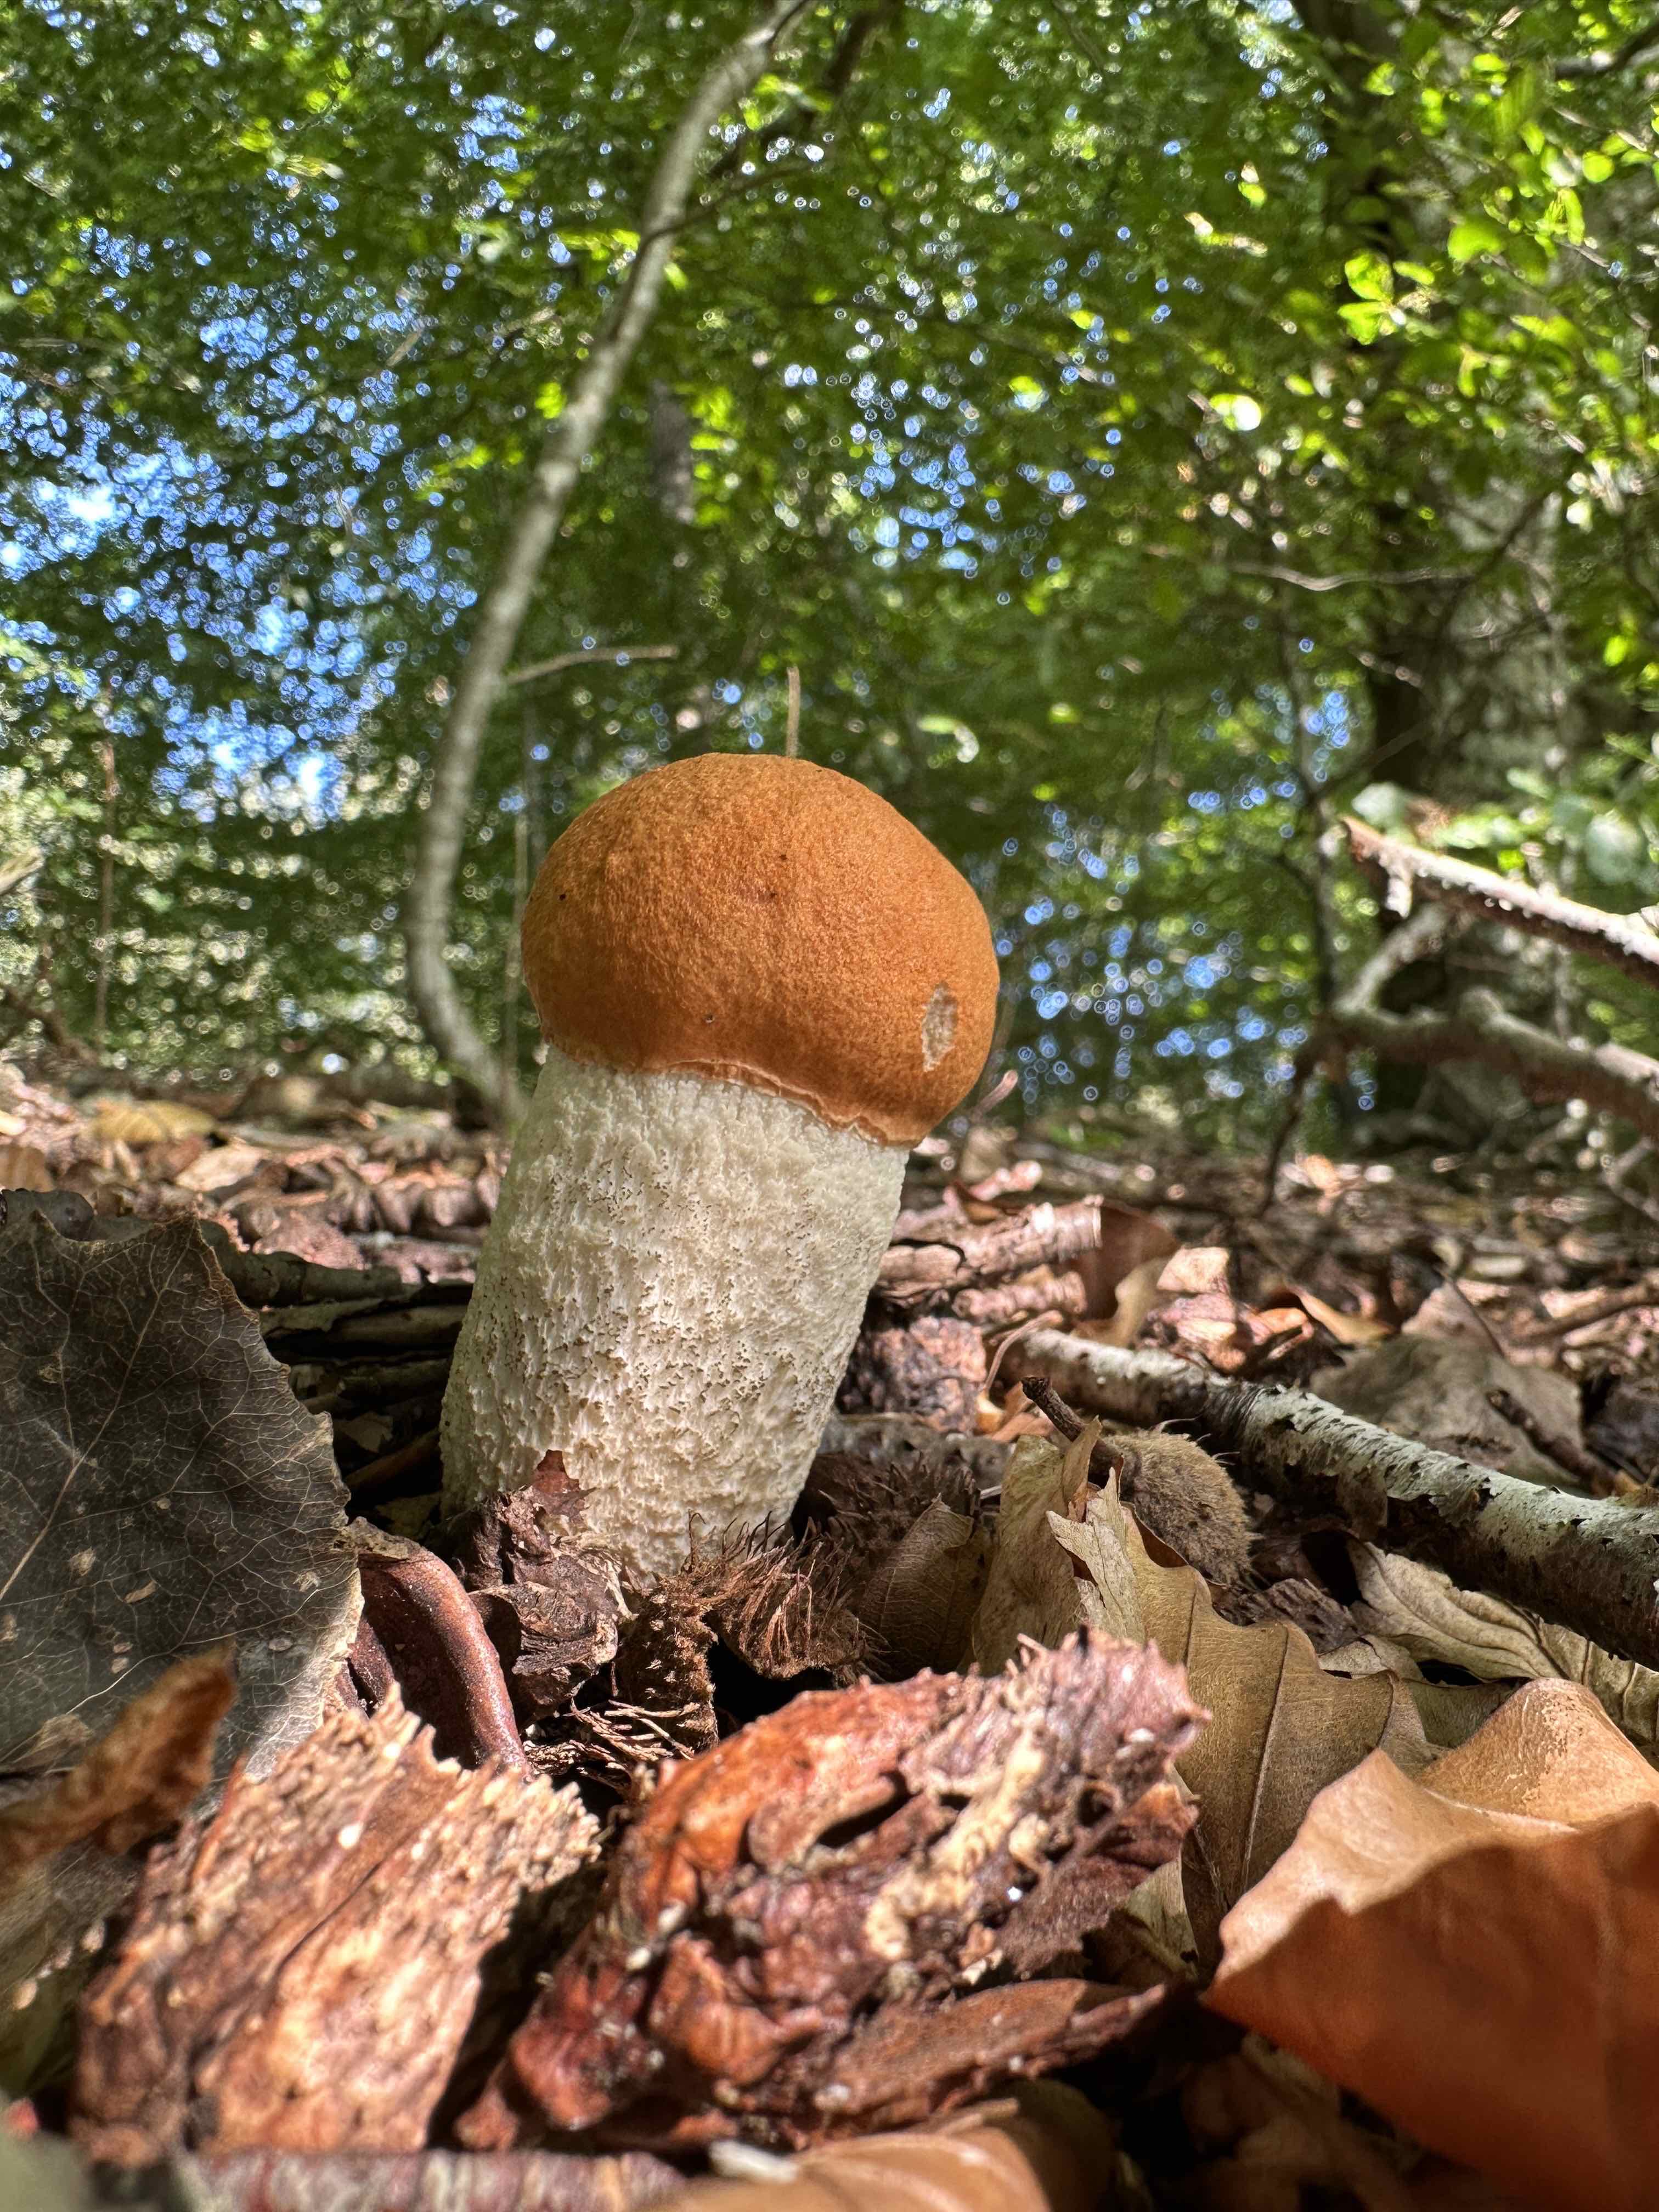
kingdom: Fungi
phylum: Basidiomycota
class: Agaricomycetes
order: Boletales
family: Boletaceae
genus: Leccinum
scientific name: Leccinum
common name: skælrørhat
